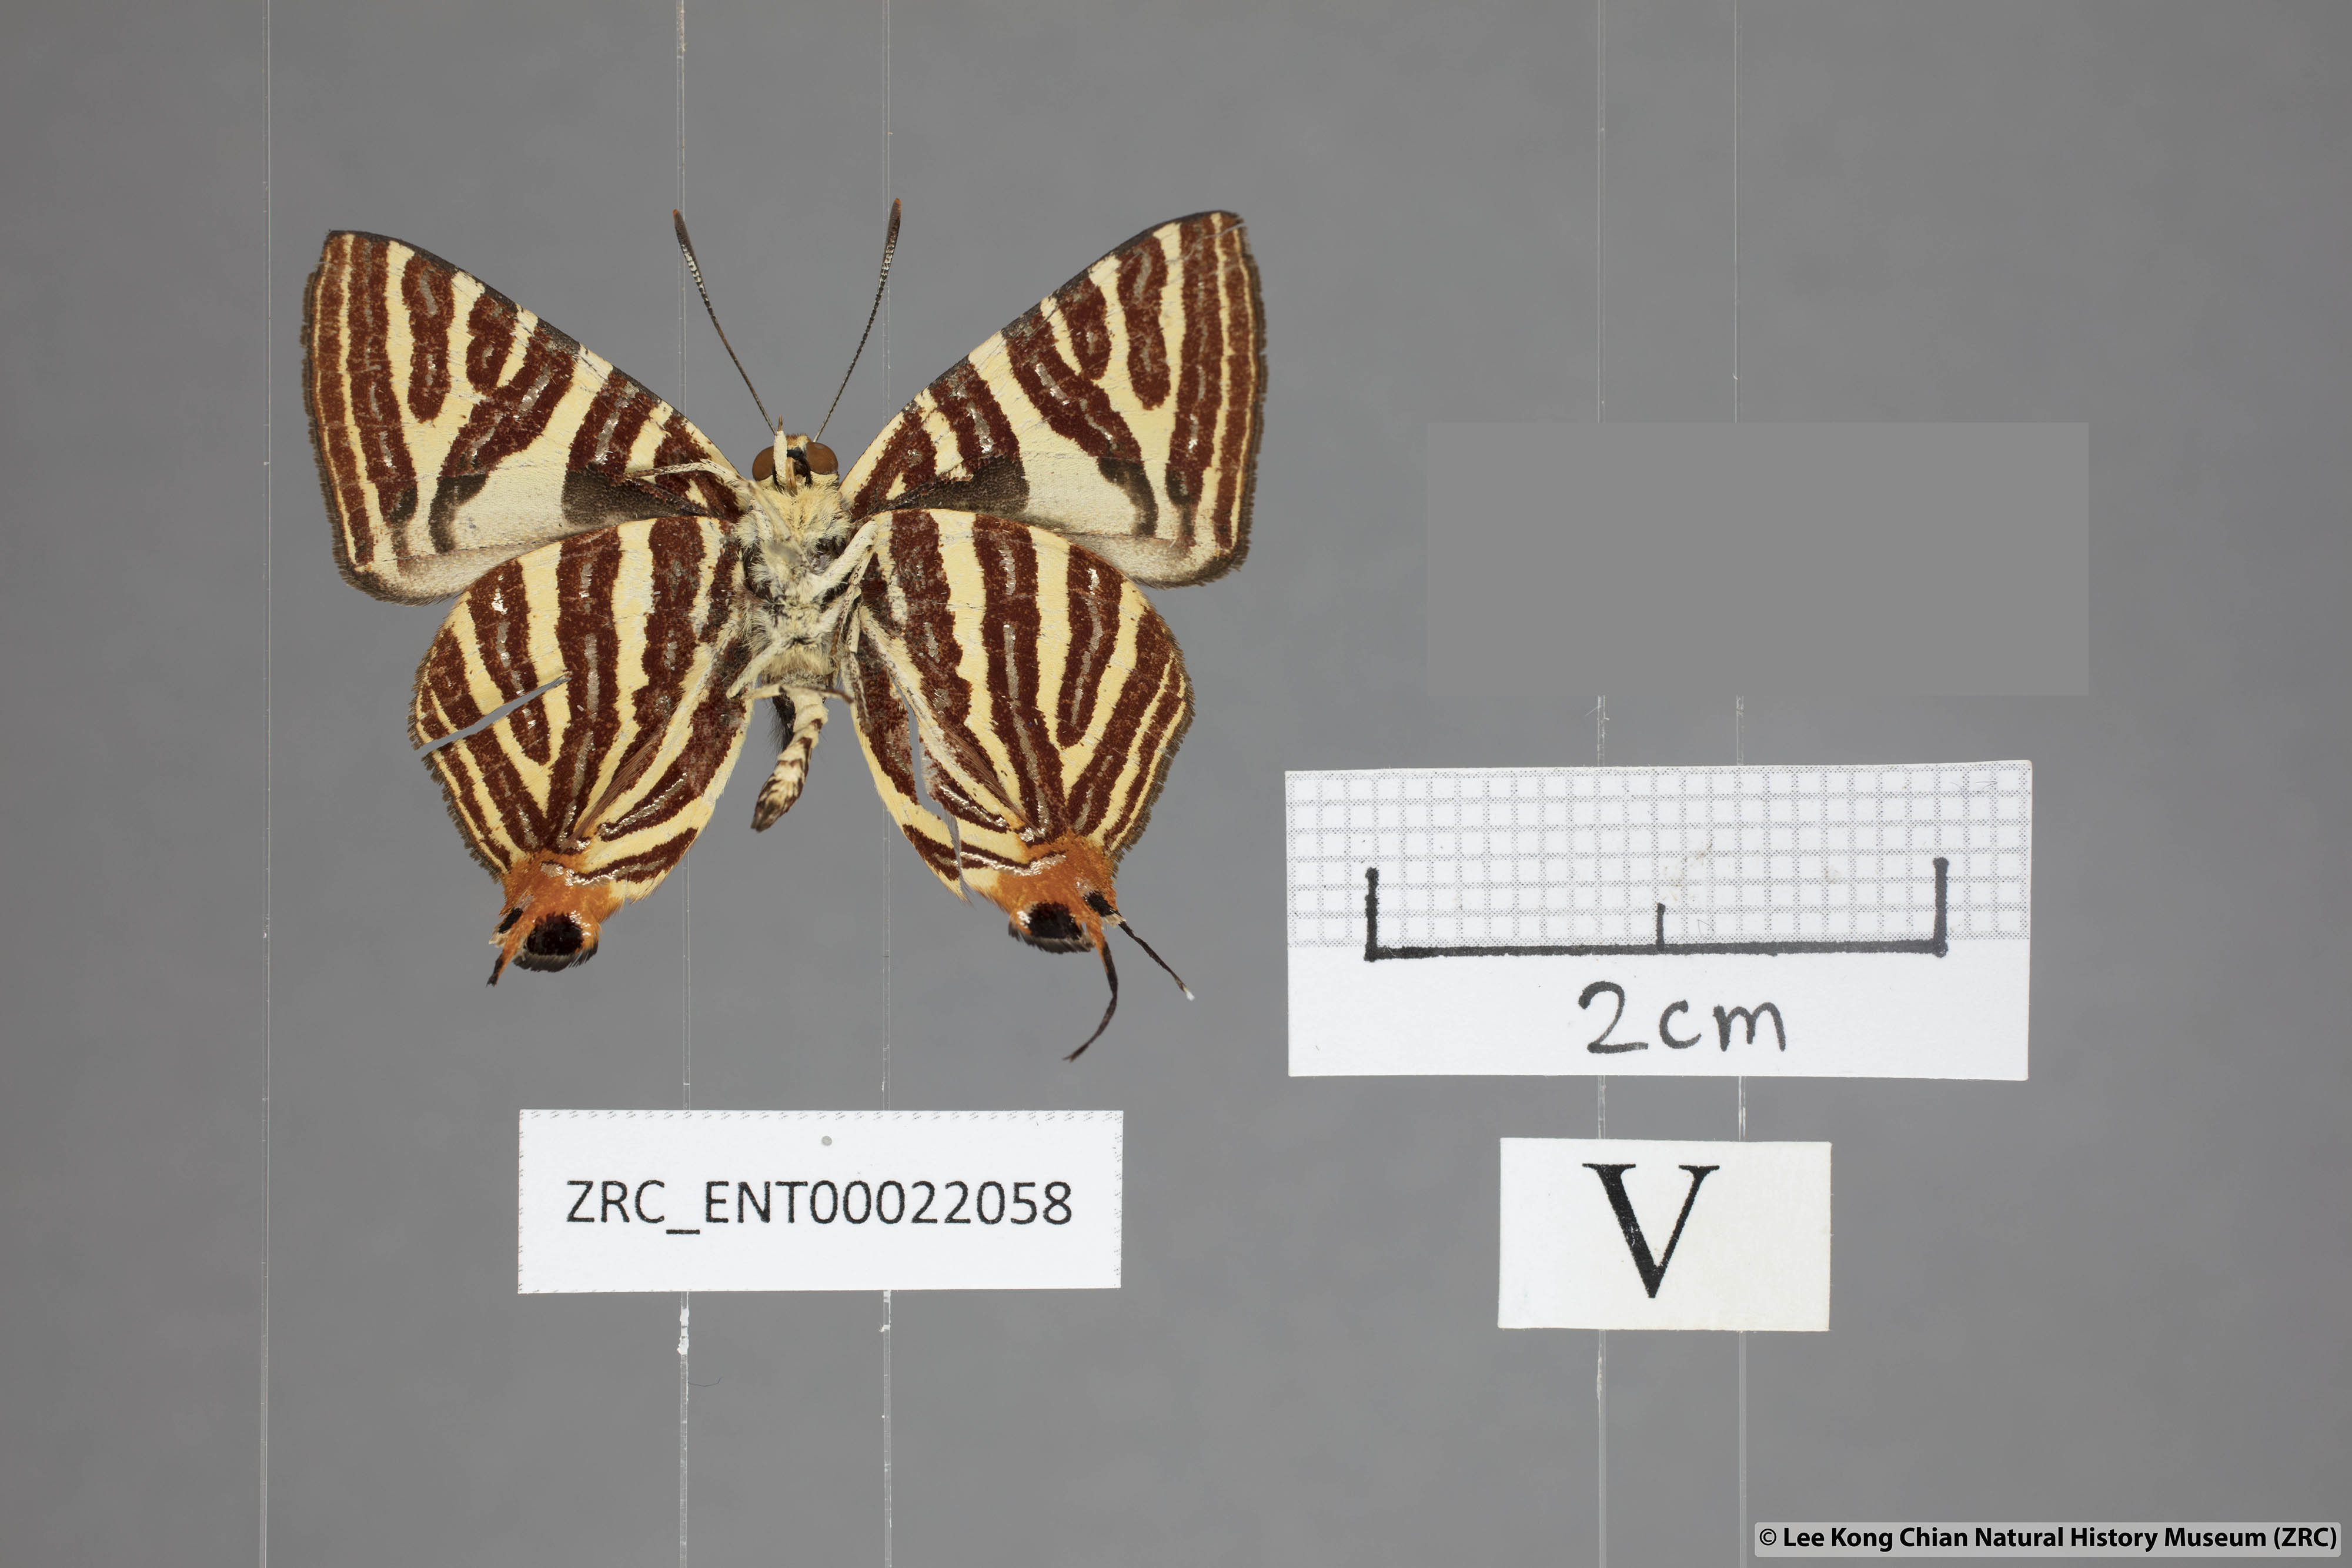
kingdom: Animalia
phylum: Arthropoda
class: Insecta
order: Lepidoptera
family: Lycaenidae
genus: Spindasis
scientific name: Spindasis kutu
